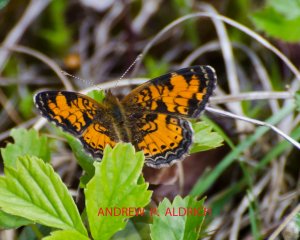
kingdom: Animalia
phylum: Arthropoda
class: Insecta
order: Lepidoptera
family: Nymphalidae
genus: Phyciodes
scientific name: Phyciodes tharos
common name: Northern Crescent
